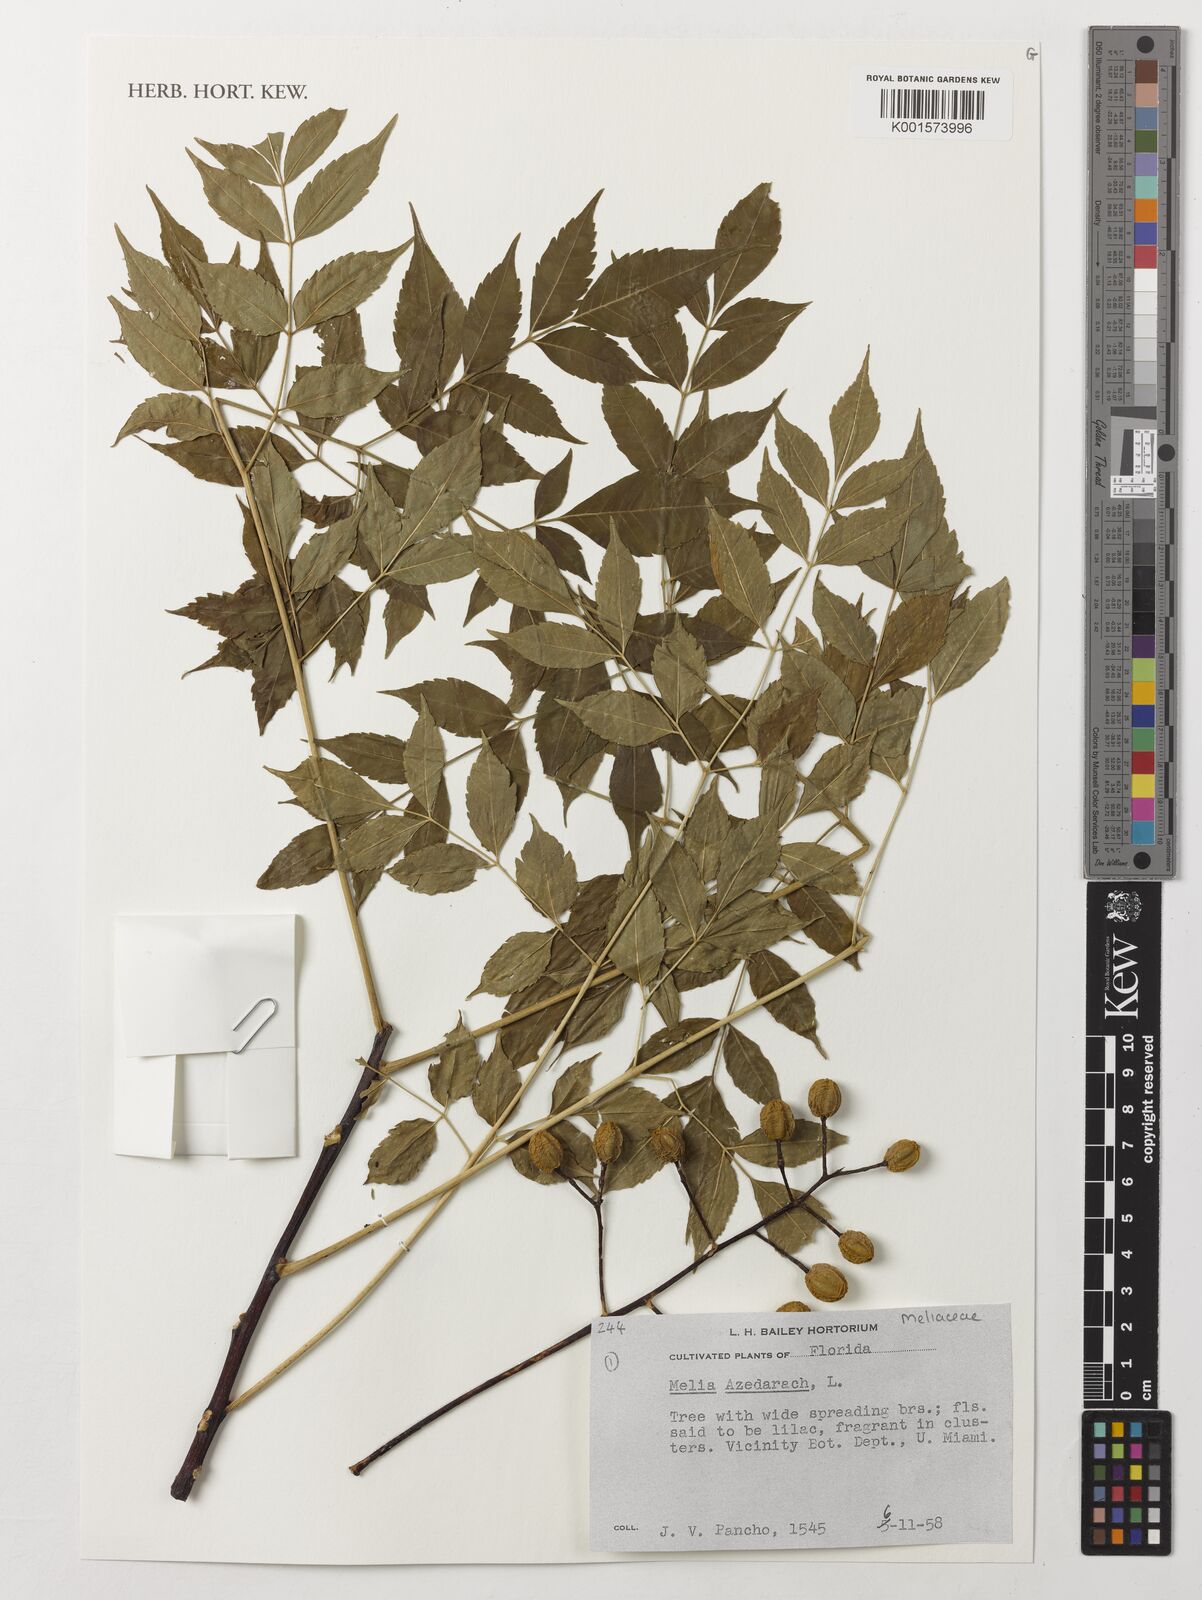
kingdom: Plantae
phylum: Tracheophyta
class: Magnoliopsida
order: Sapindales
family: Meliaceae
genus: Melia
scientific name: Melia azedarach
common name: Chinaberrytree
